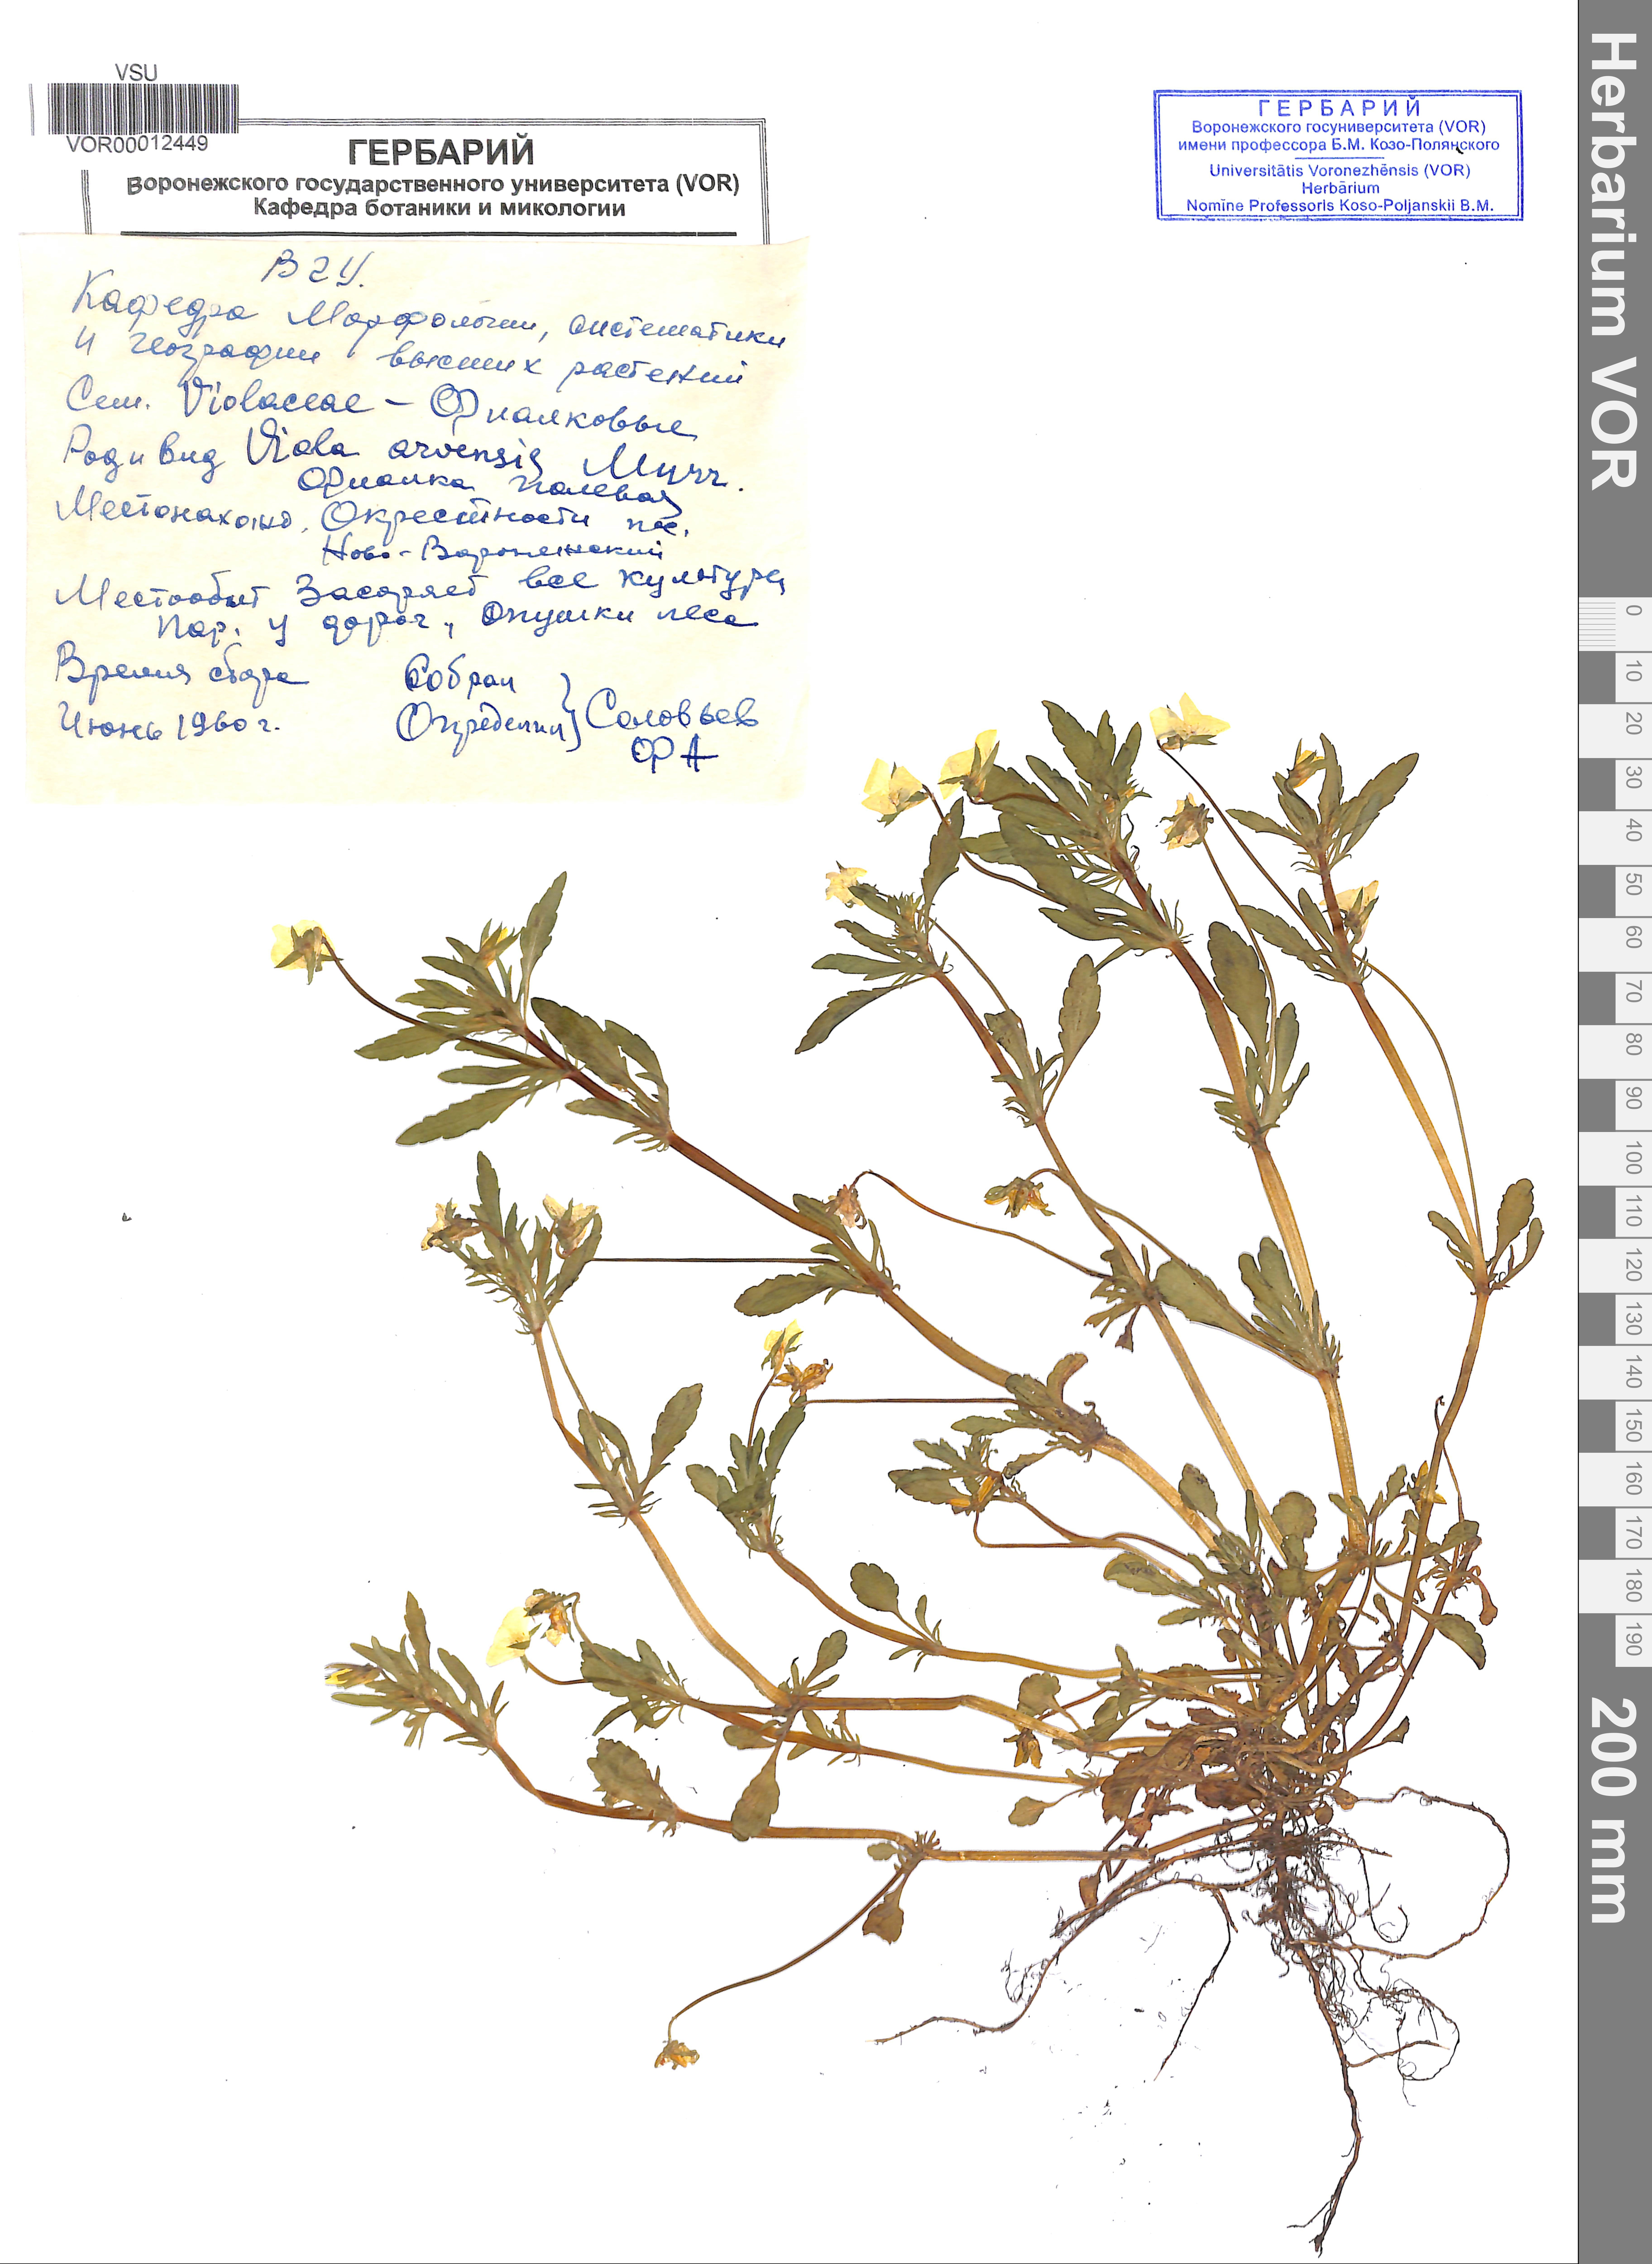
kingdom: Plantae
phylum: Tracheophyta
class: Magnoliopsida
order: Malpighiales
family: Violaceae
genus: Viola
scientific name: Viola arvensis
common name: Field pansy
